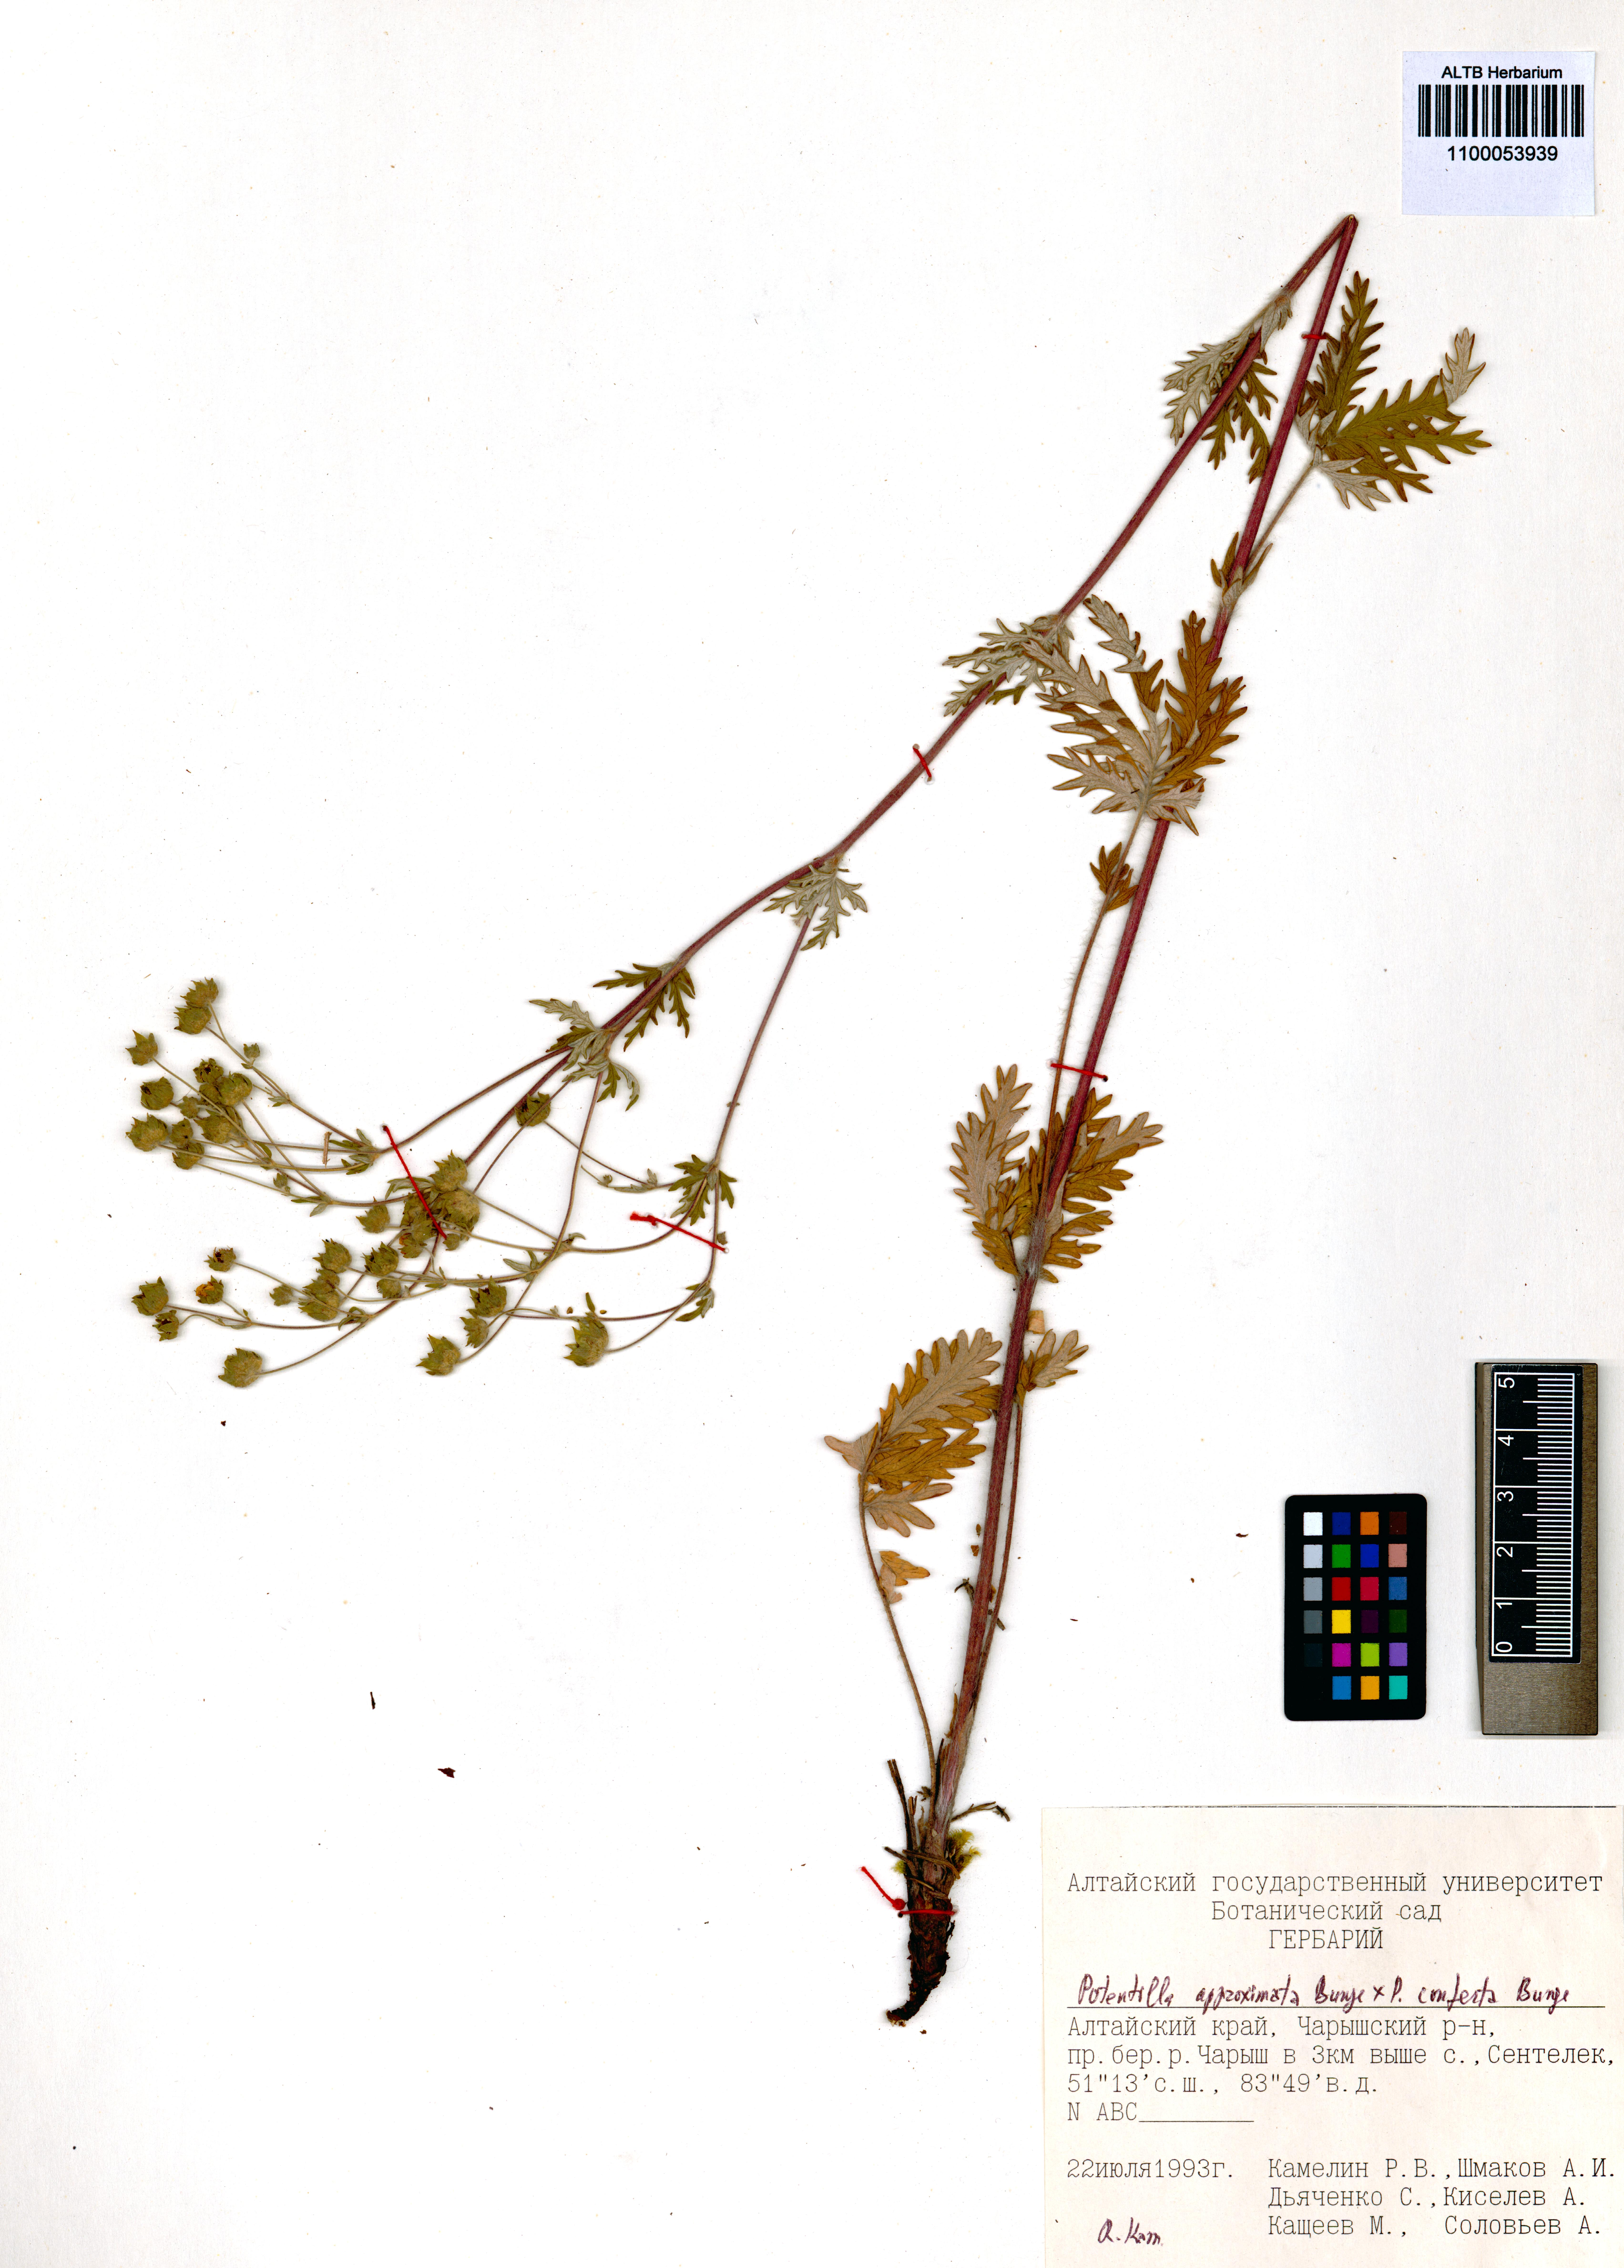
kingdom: Plantae
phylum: Tracheophyta
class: Magnoliopsida
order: Rosales
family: Rosaceae
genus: Potentilla
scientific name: Potentilla conferta
